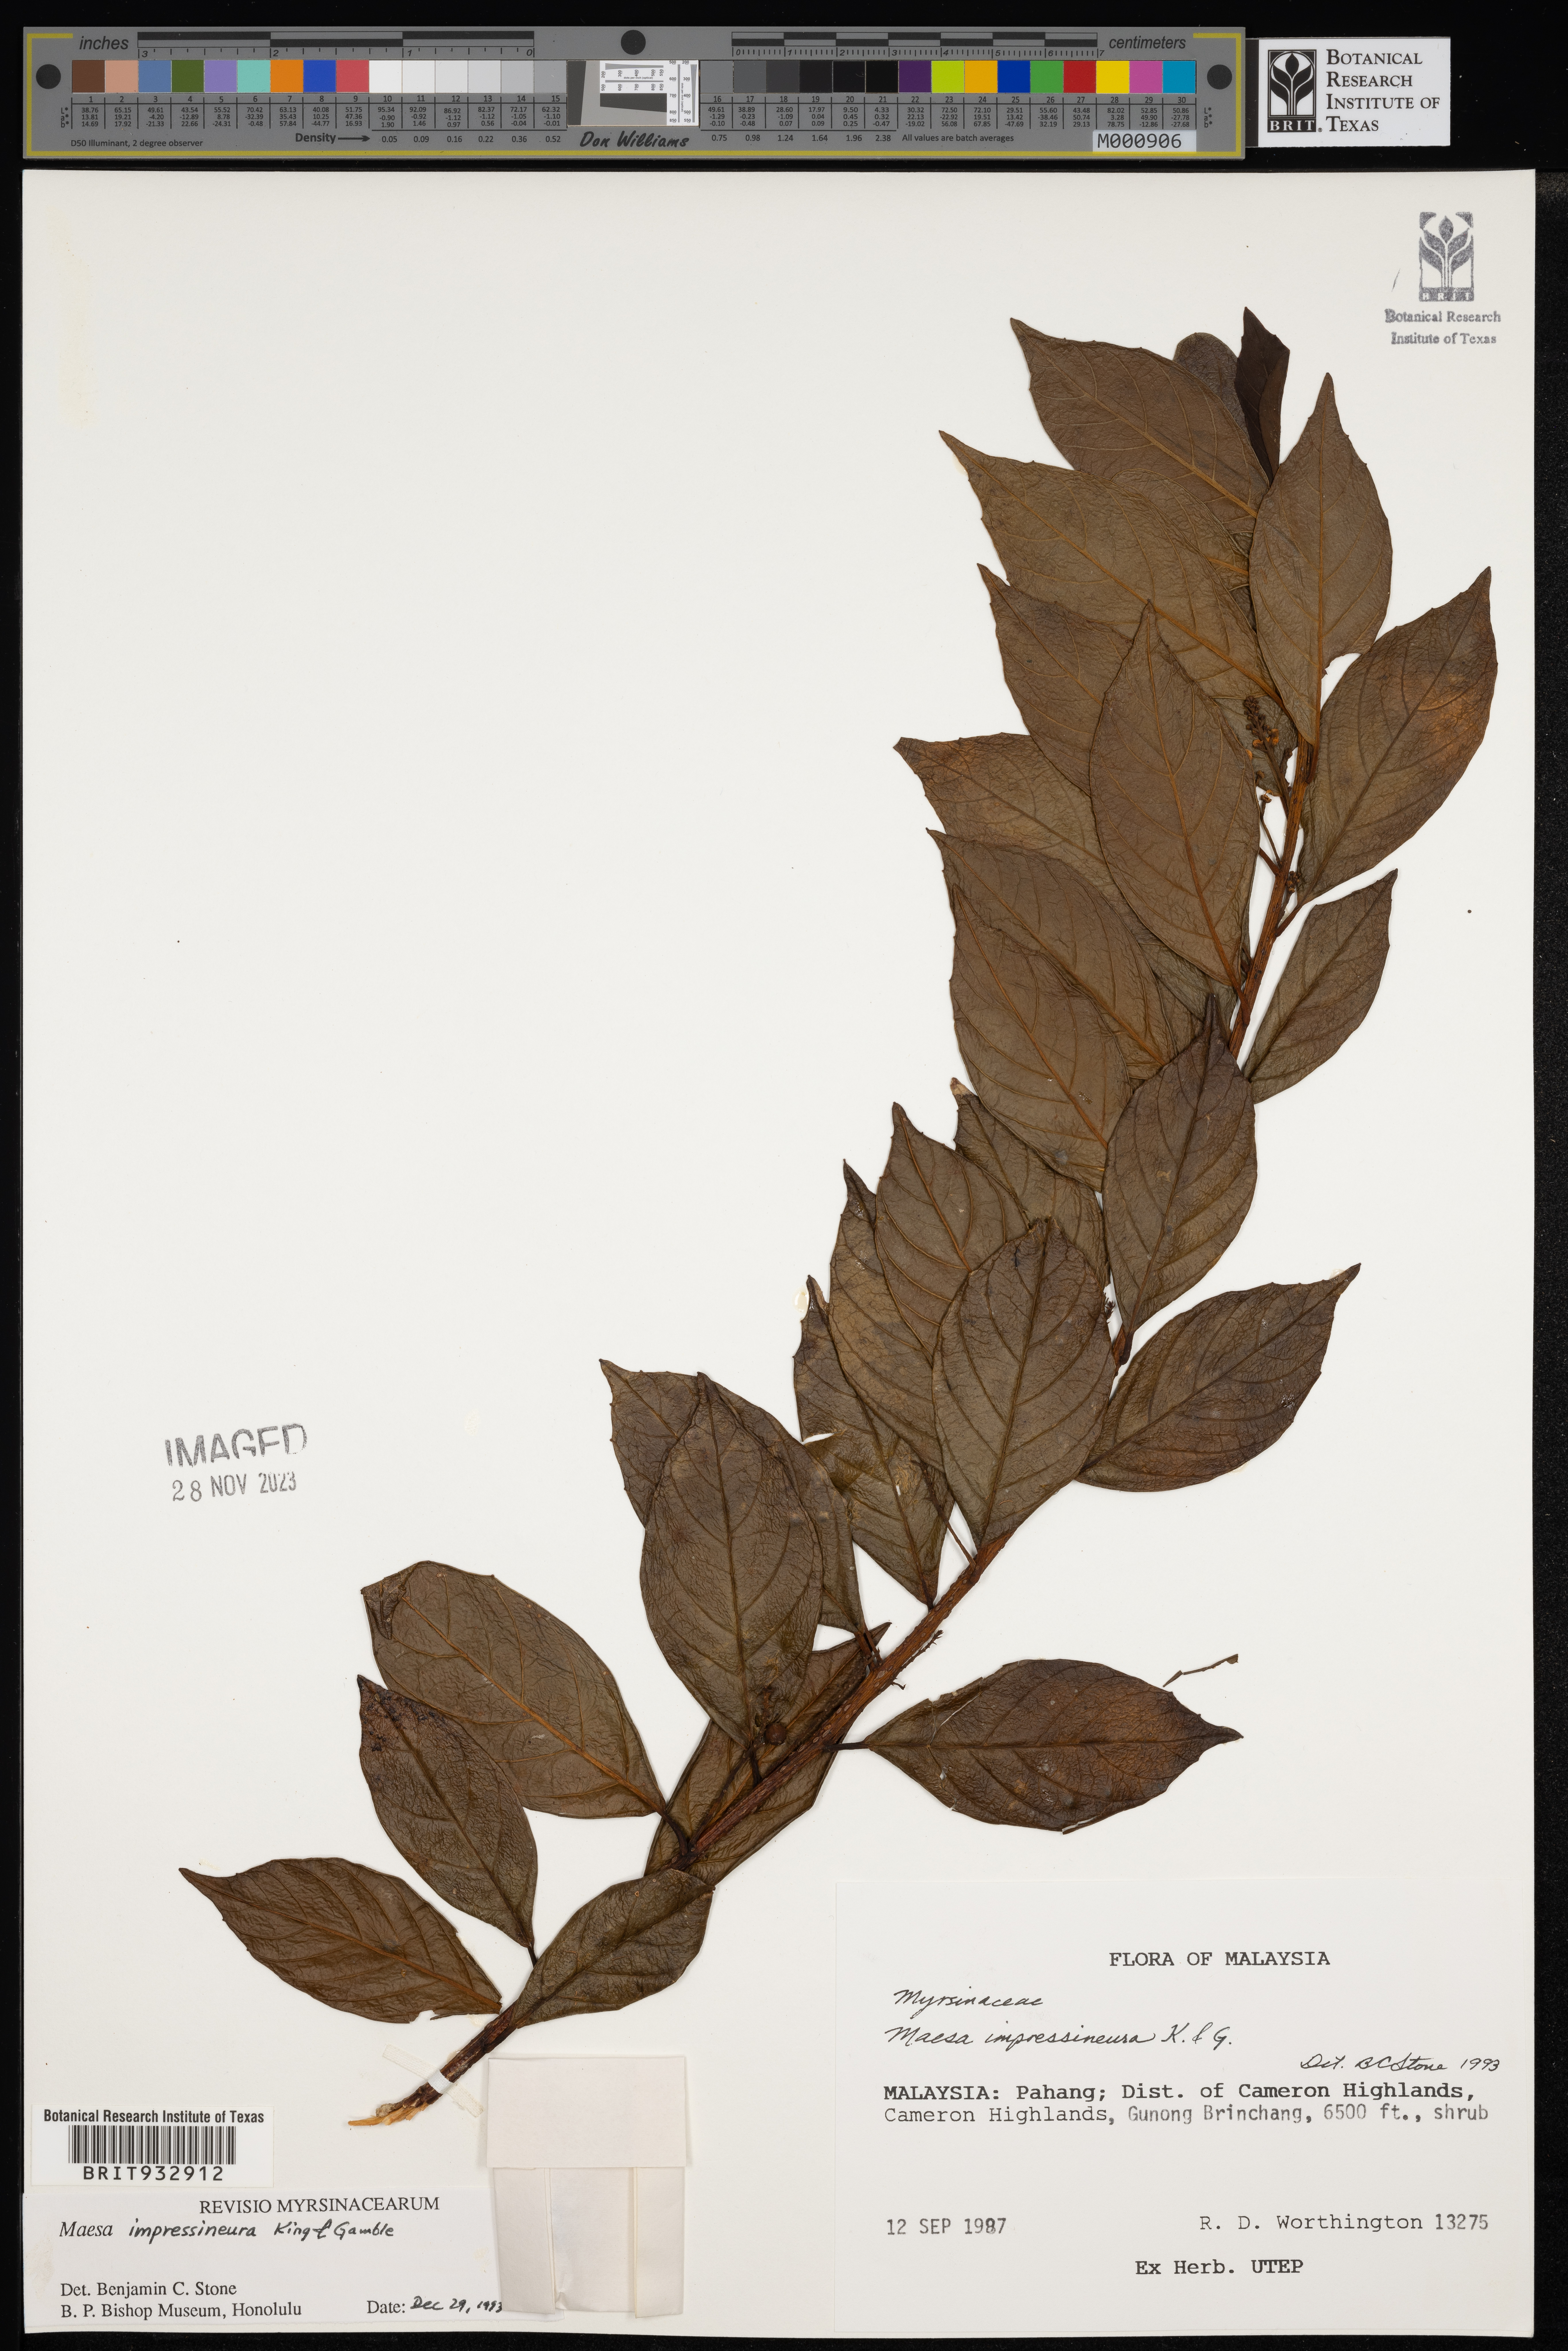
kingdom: Plantae
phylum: Tracheophyta
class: Magnoliopsida
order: Ericales
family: Primulaceae
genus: Maesa
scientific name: Maesa
